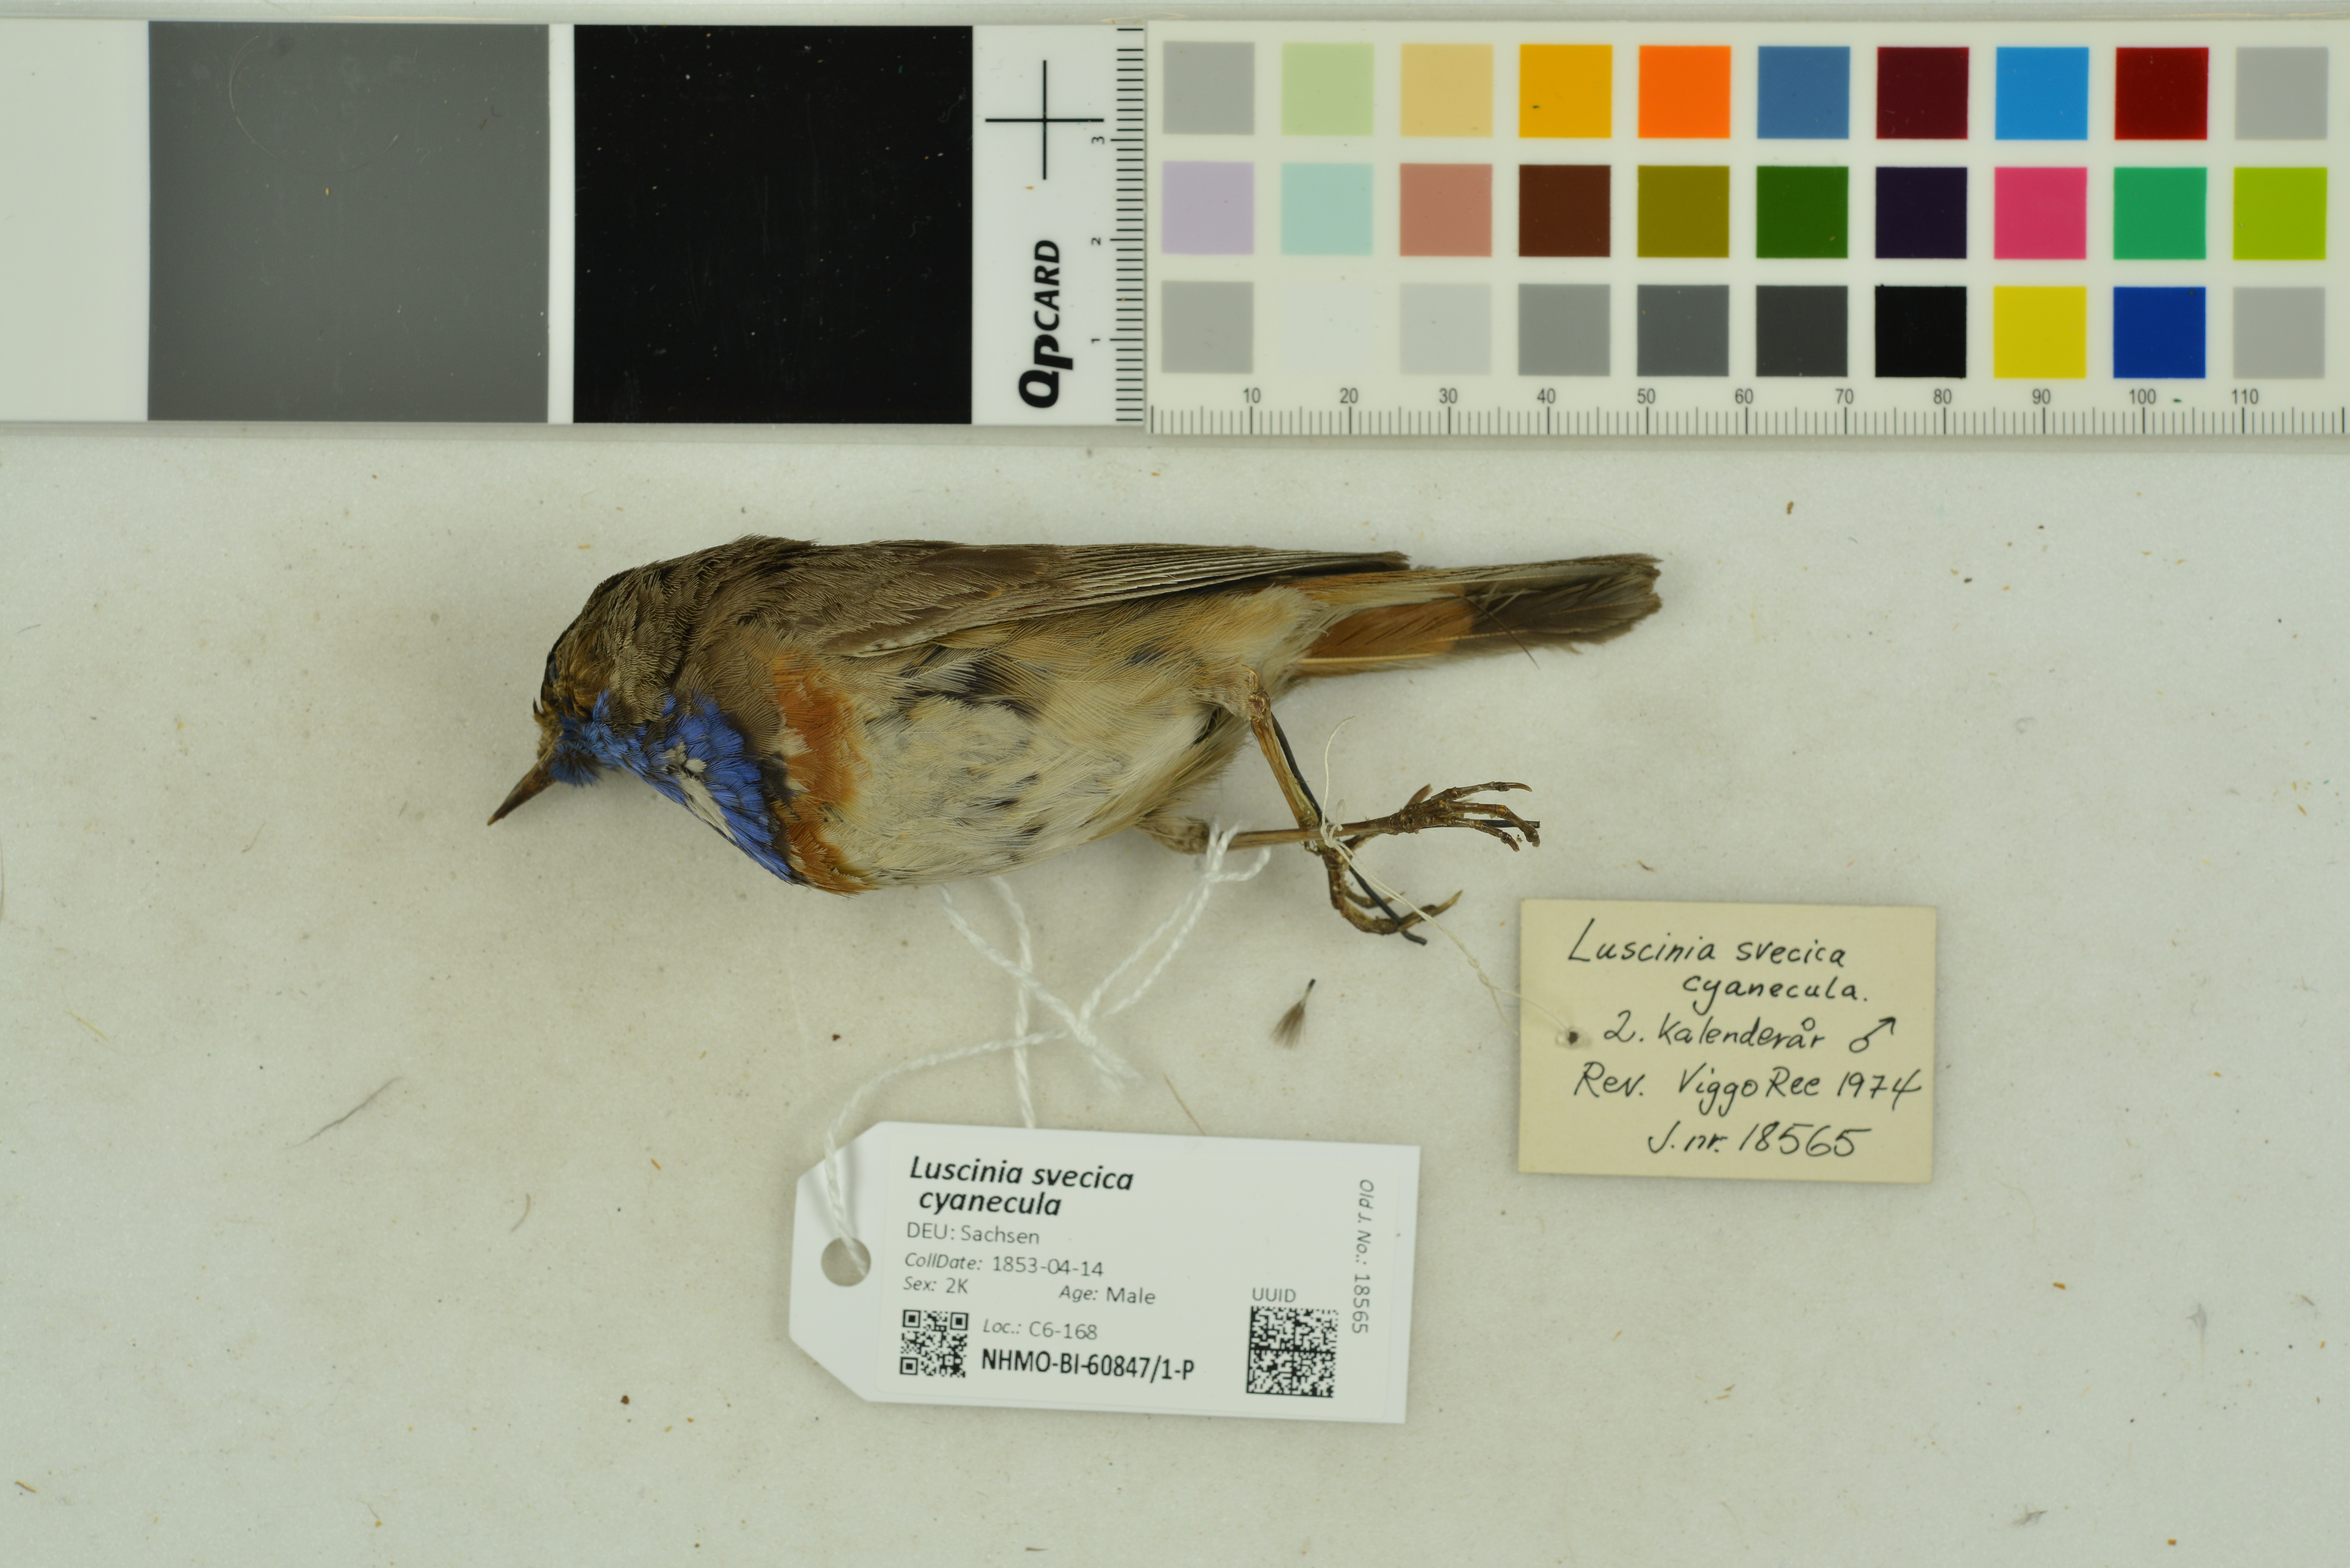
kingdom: Animalia
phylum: Chordata
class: Aves
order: Passeriformes
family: Muscicapidae
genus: Luscinia
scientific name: Luscinia svecica
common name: Bluethroat
